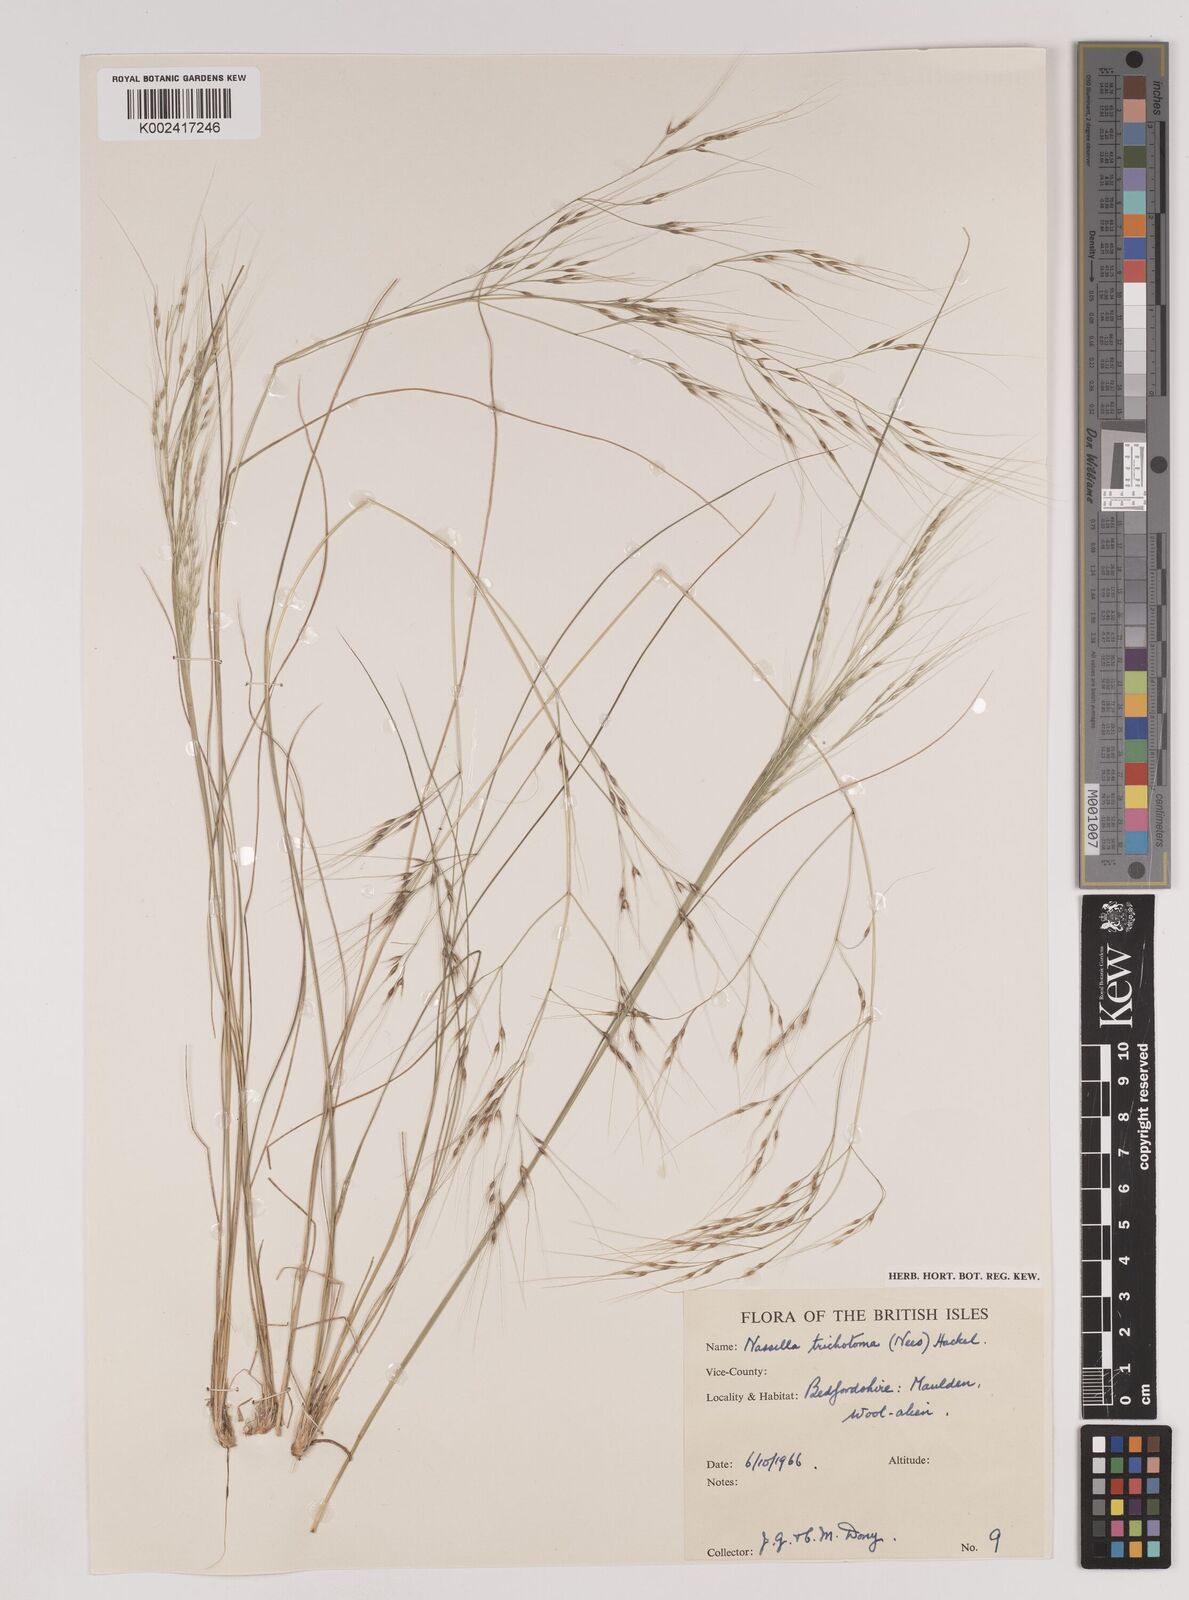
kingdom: Plantae
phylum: Tracheophyta
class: Liliopsida
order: Poales
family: Poaceae
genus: Nassella
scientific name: Nassella trichotoma
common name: Serrated tussock grass
